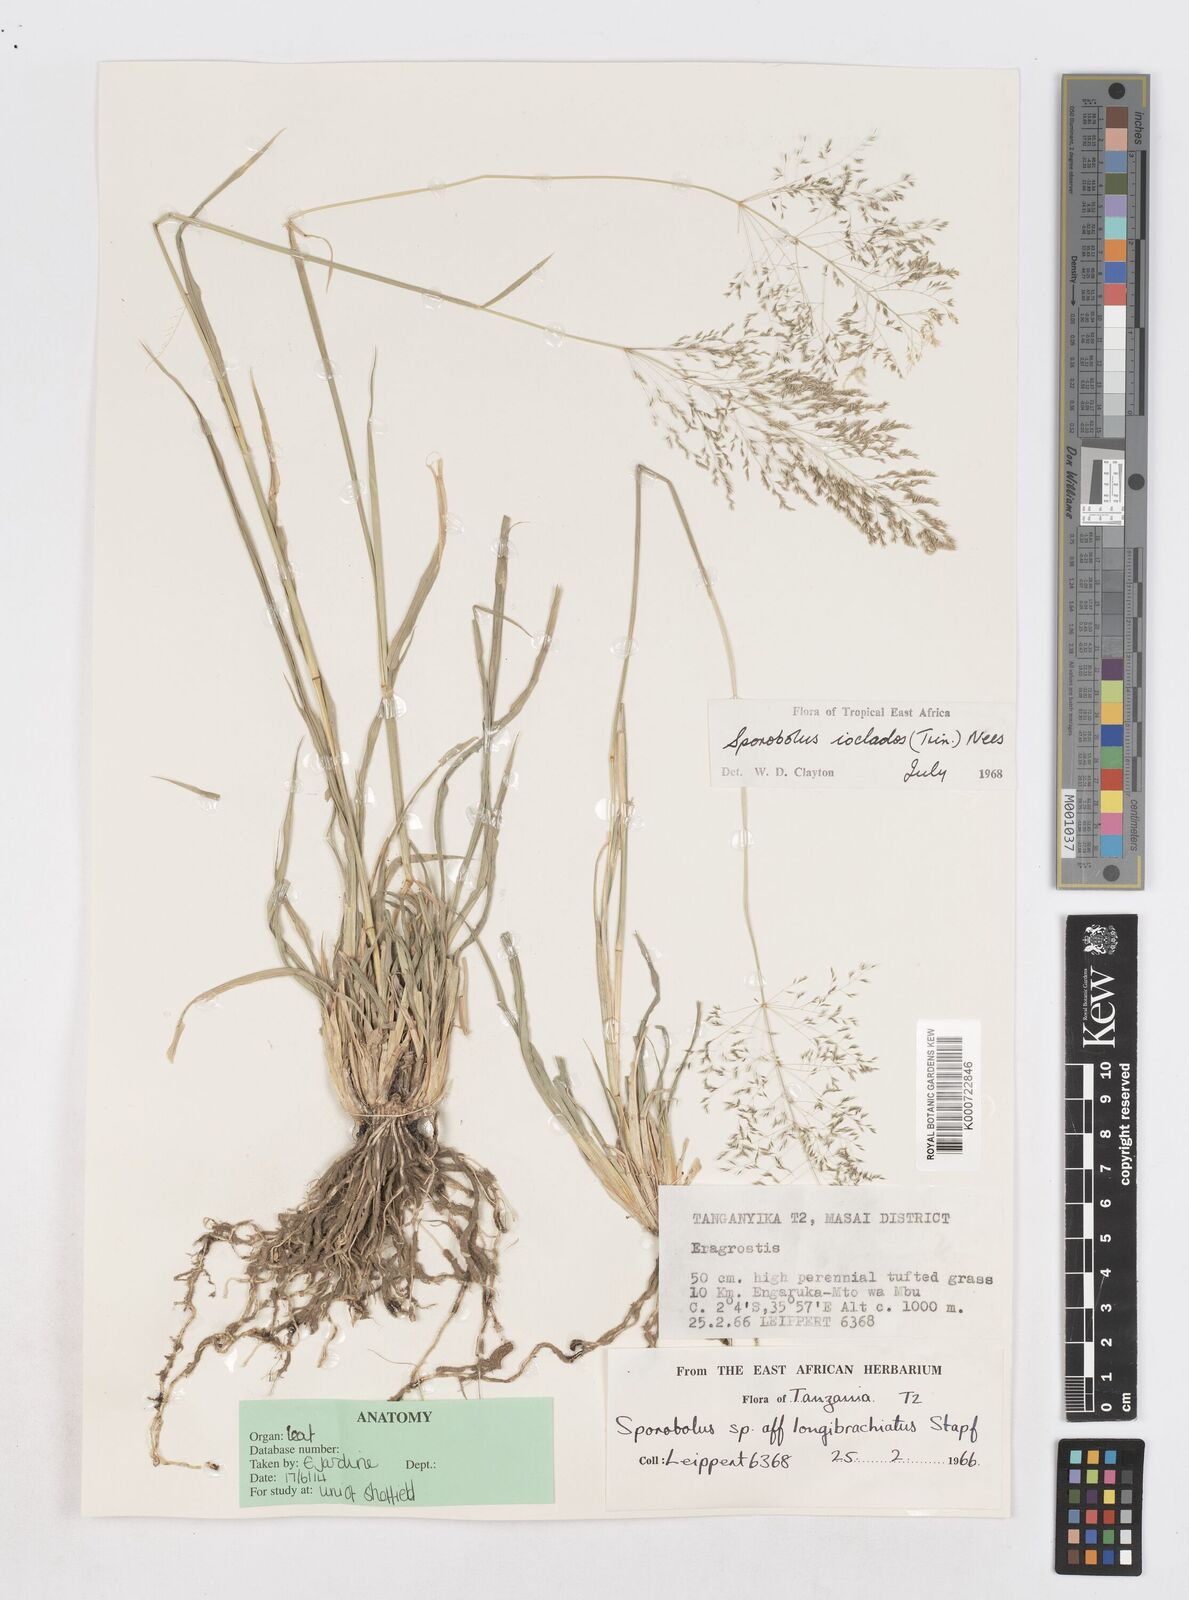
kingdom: Plantae
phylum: Tracheophyta
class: Liliopsida
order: Poales
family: Poaceae
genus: Sporobolus
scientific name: Sporobolus ioclados
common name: Pan dropseed
